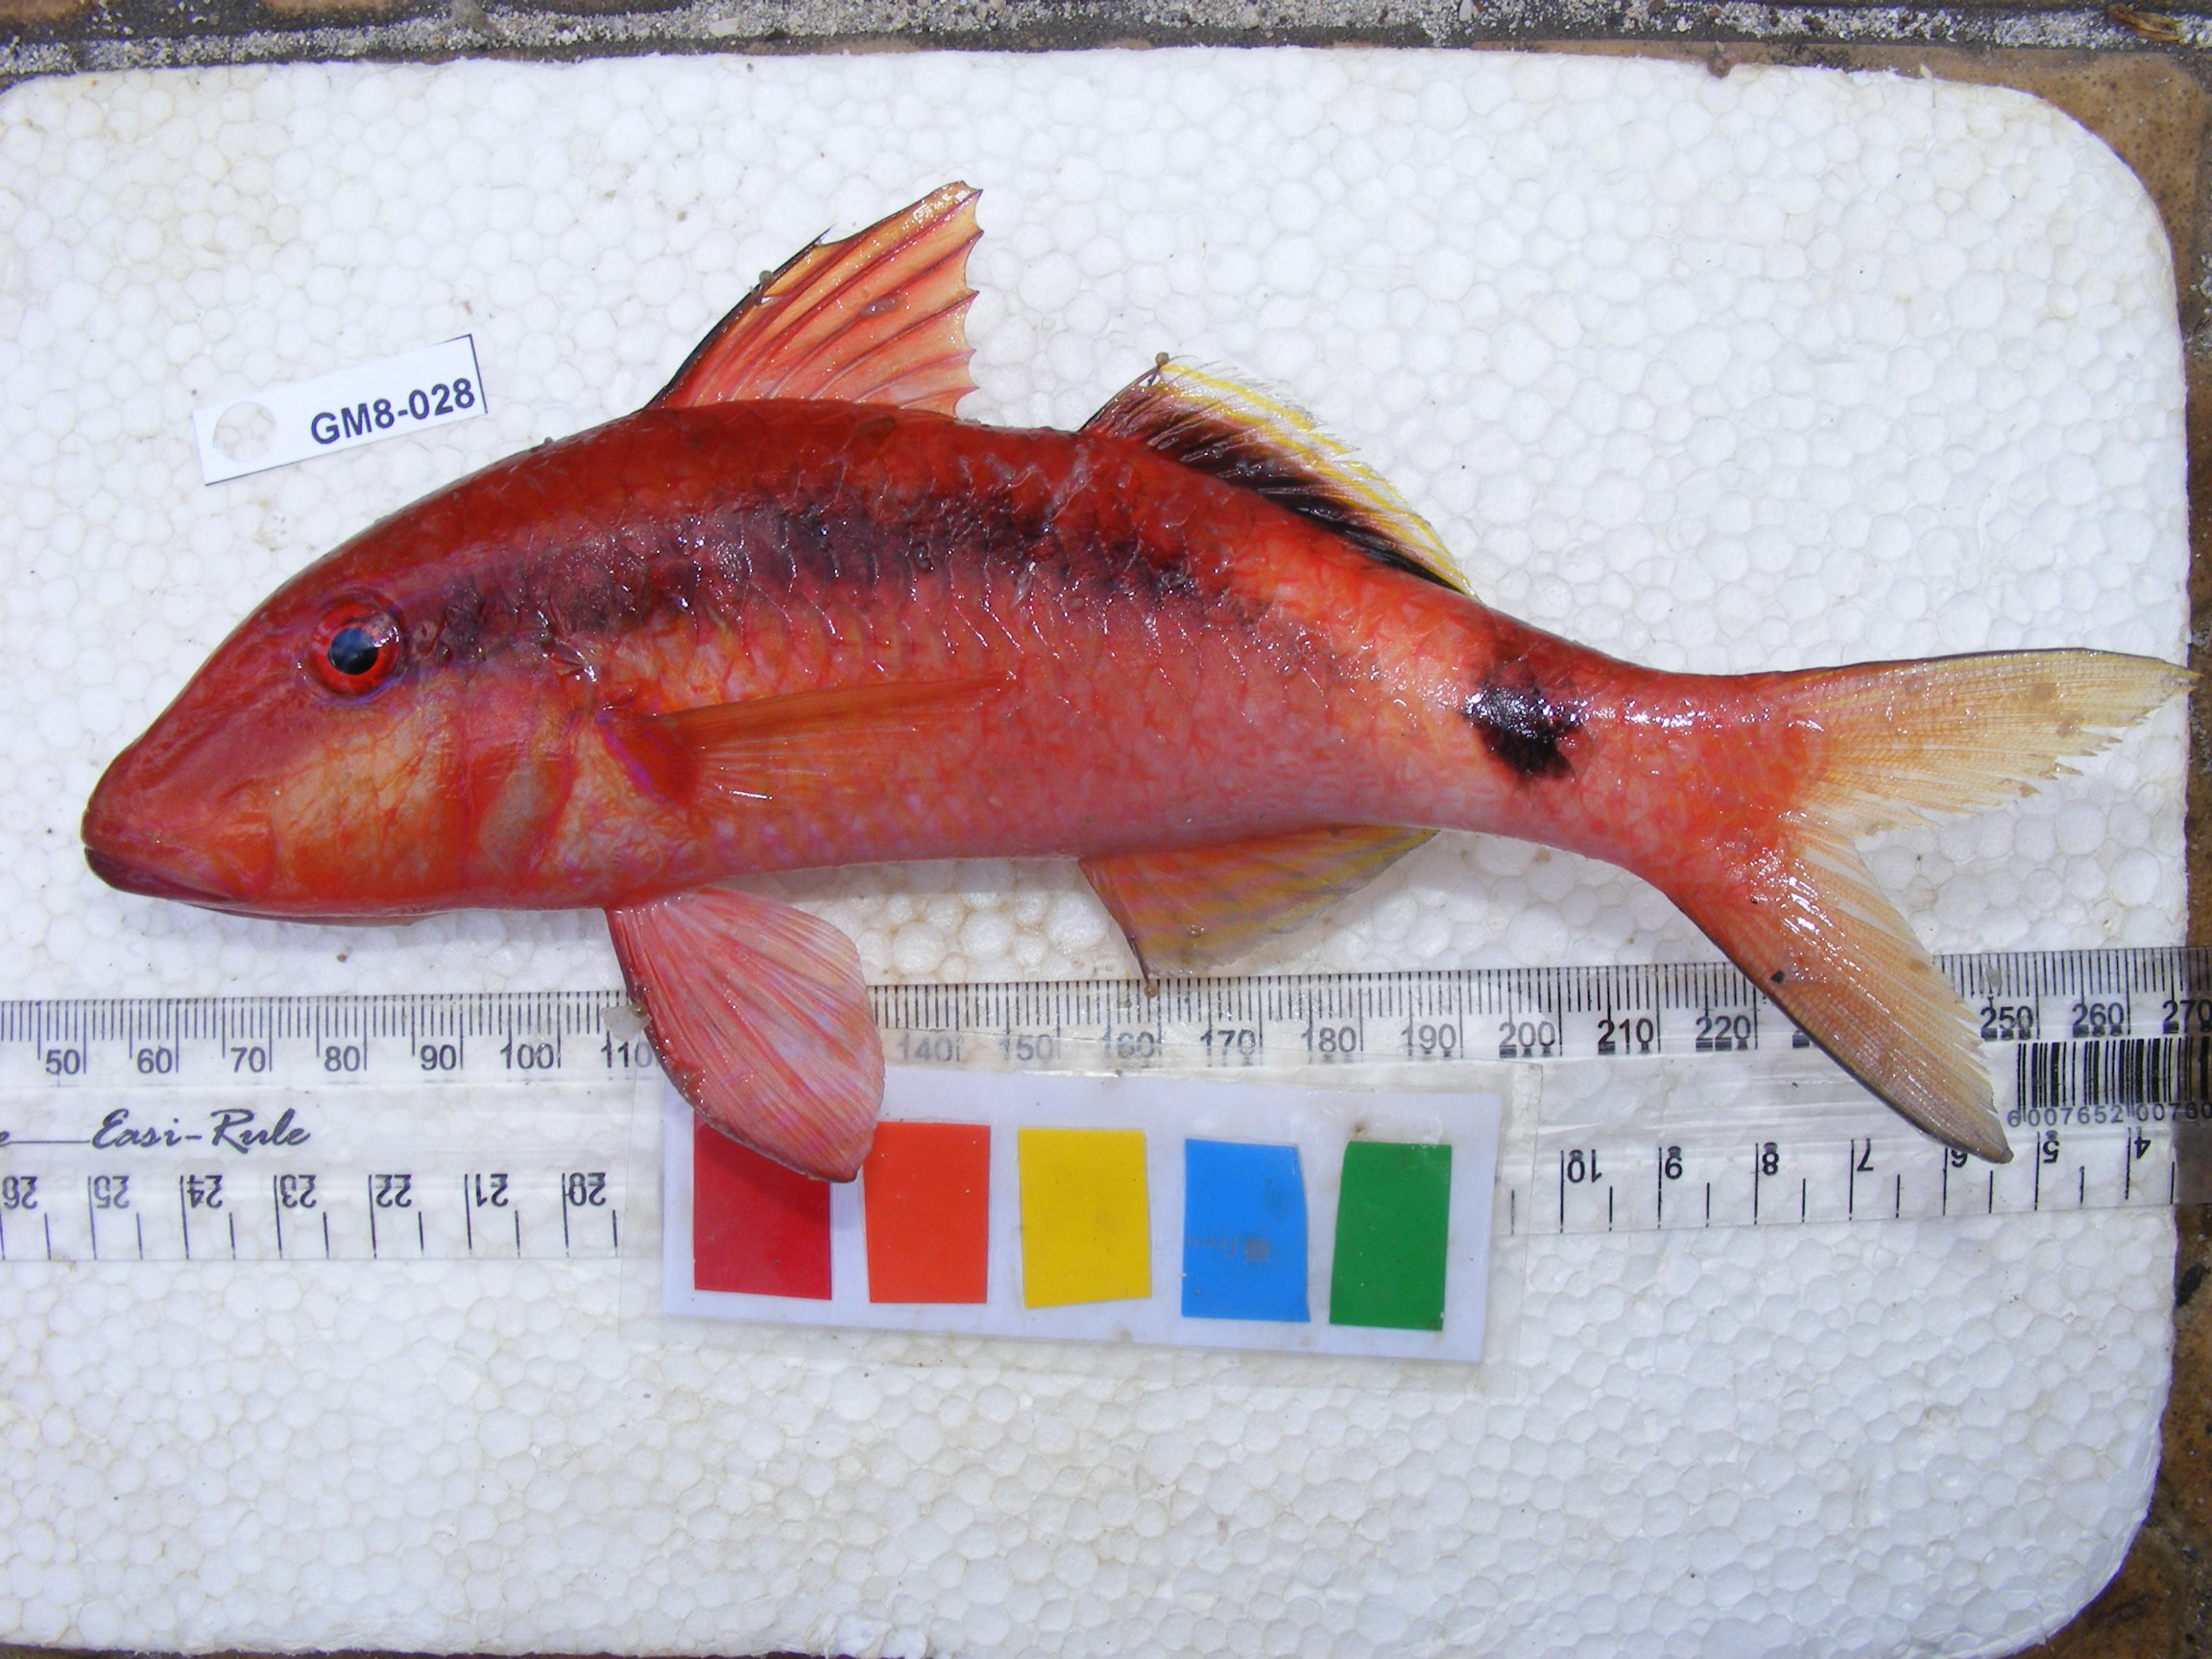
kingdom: Animalia
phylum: Chordata
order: Perciformes
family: Mullidae
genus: Parupeneus
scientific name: Parupeneus macronemus
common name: Long-barbel goatfish
